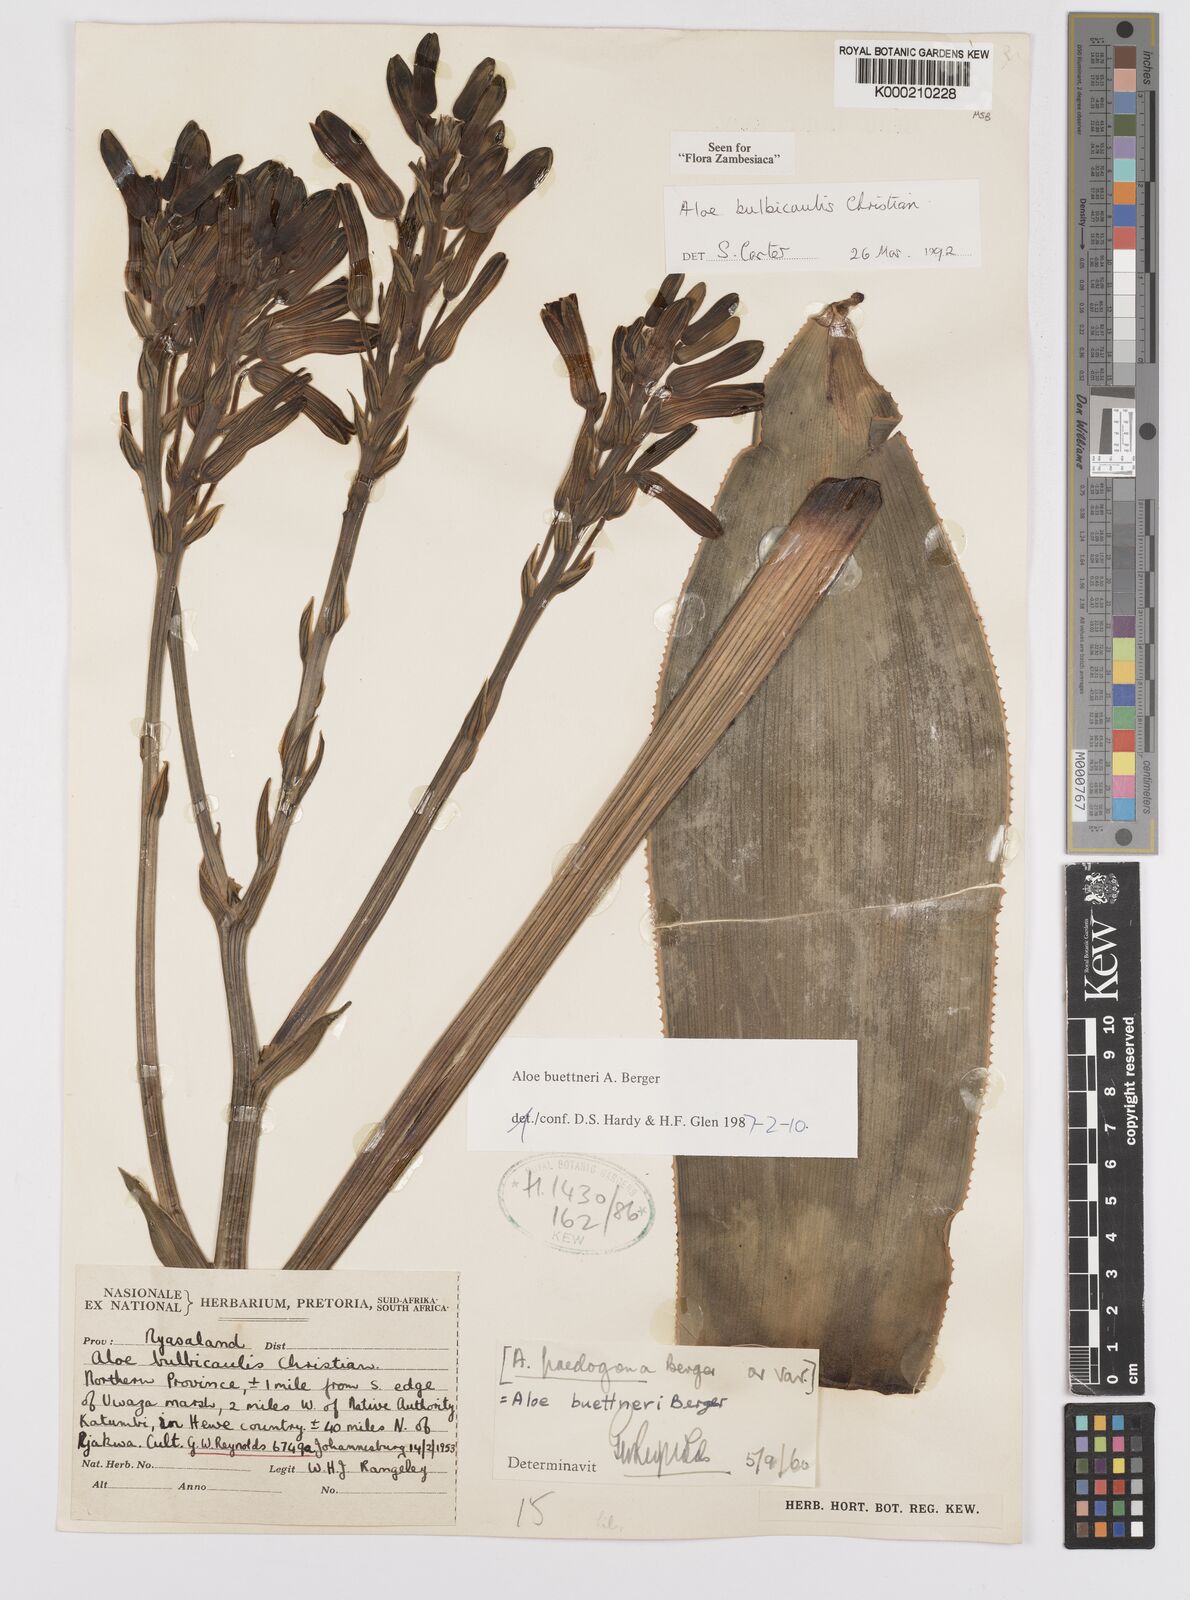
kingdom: Plantae
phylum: Tracheophyta
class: Liliopsida
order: Asparagales
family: Asphodelaceae
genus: Aloe
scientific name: Aloe bulbicaulis
